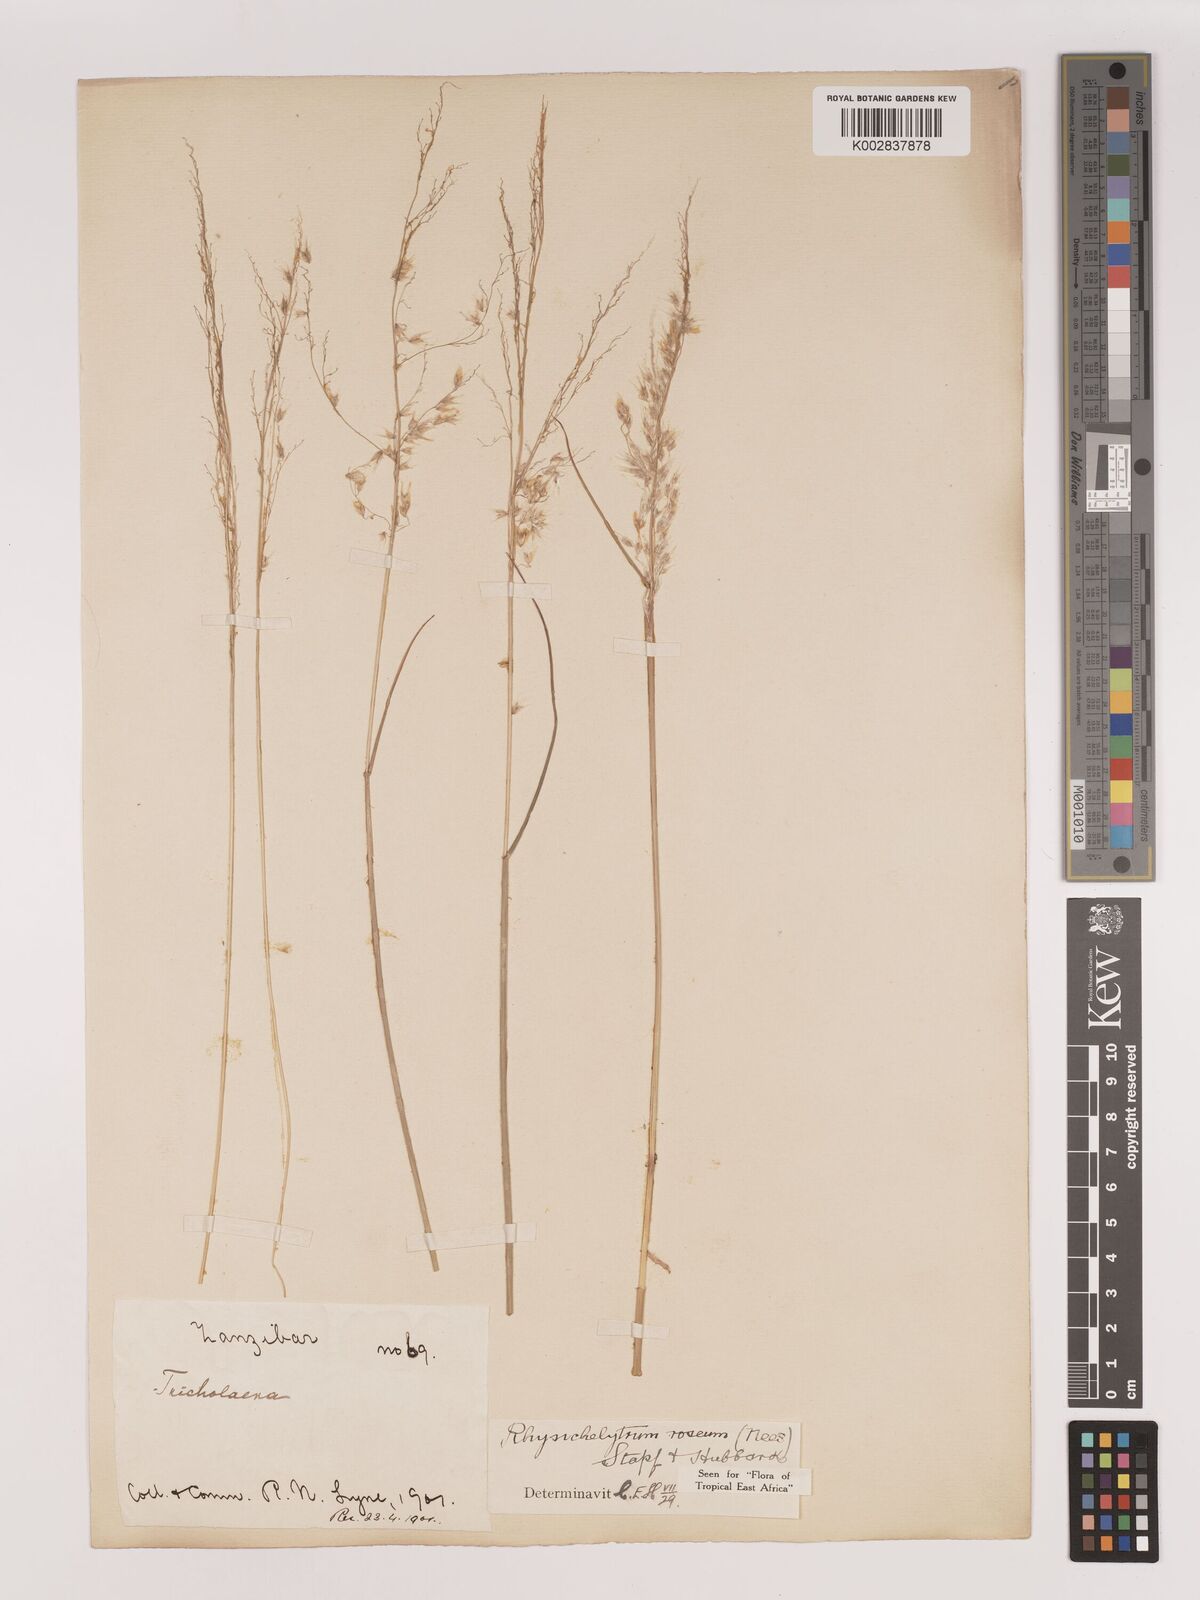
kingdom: Plantae
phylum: Tracheophyta
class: Liliopsida
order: Poales
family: Poaceae
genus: Melinis
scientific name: Melinis repens
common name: Rose natal grass
